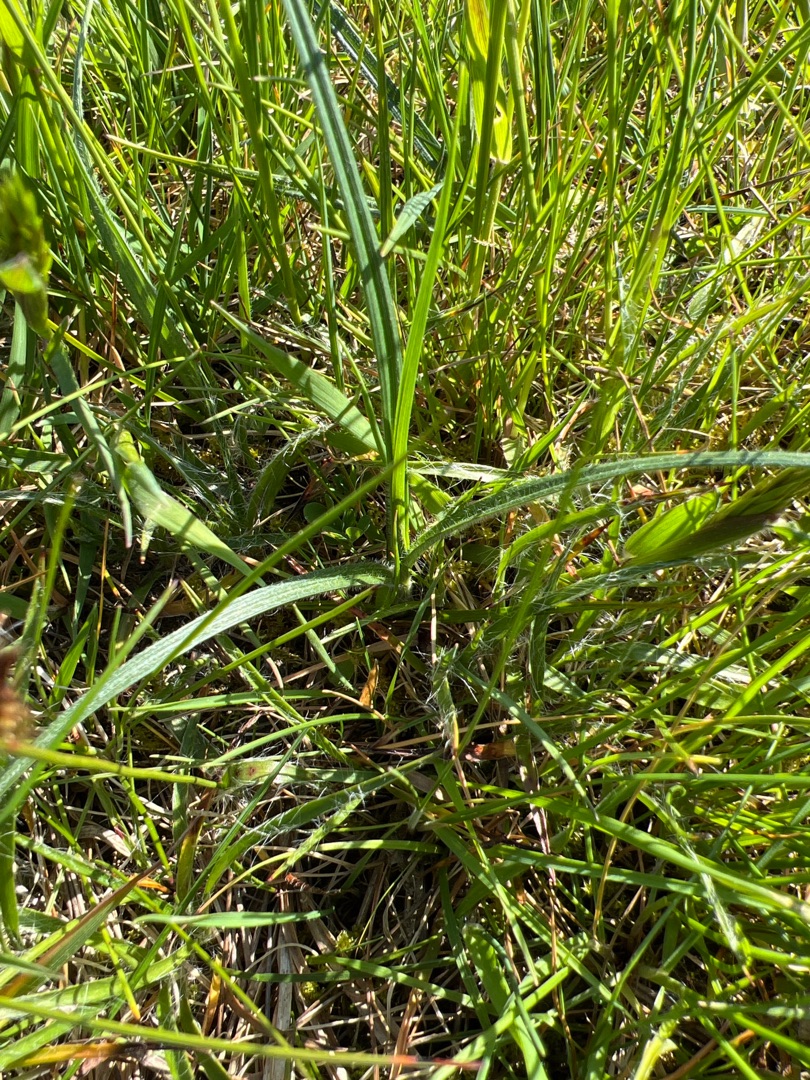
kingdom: Plantae
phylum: Tracheophyta
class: Liliopsida
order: Poales
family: Cyperaceae
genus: Carex
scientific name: Carex hirta
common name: Håret star
